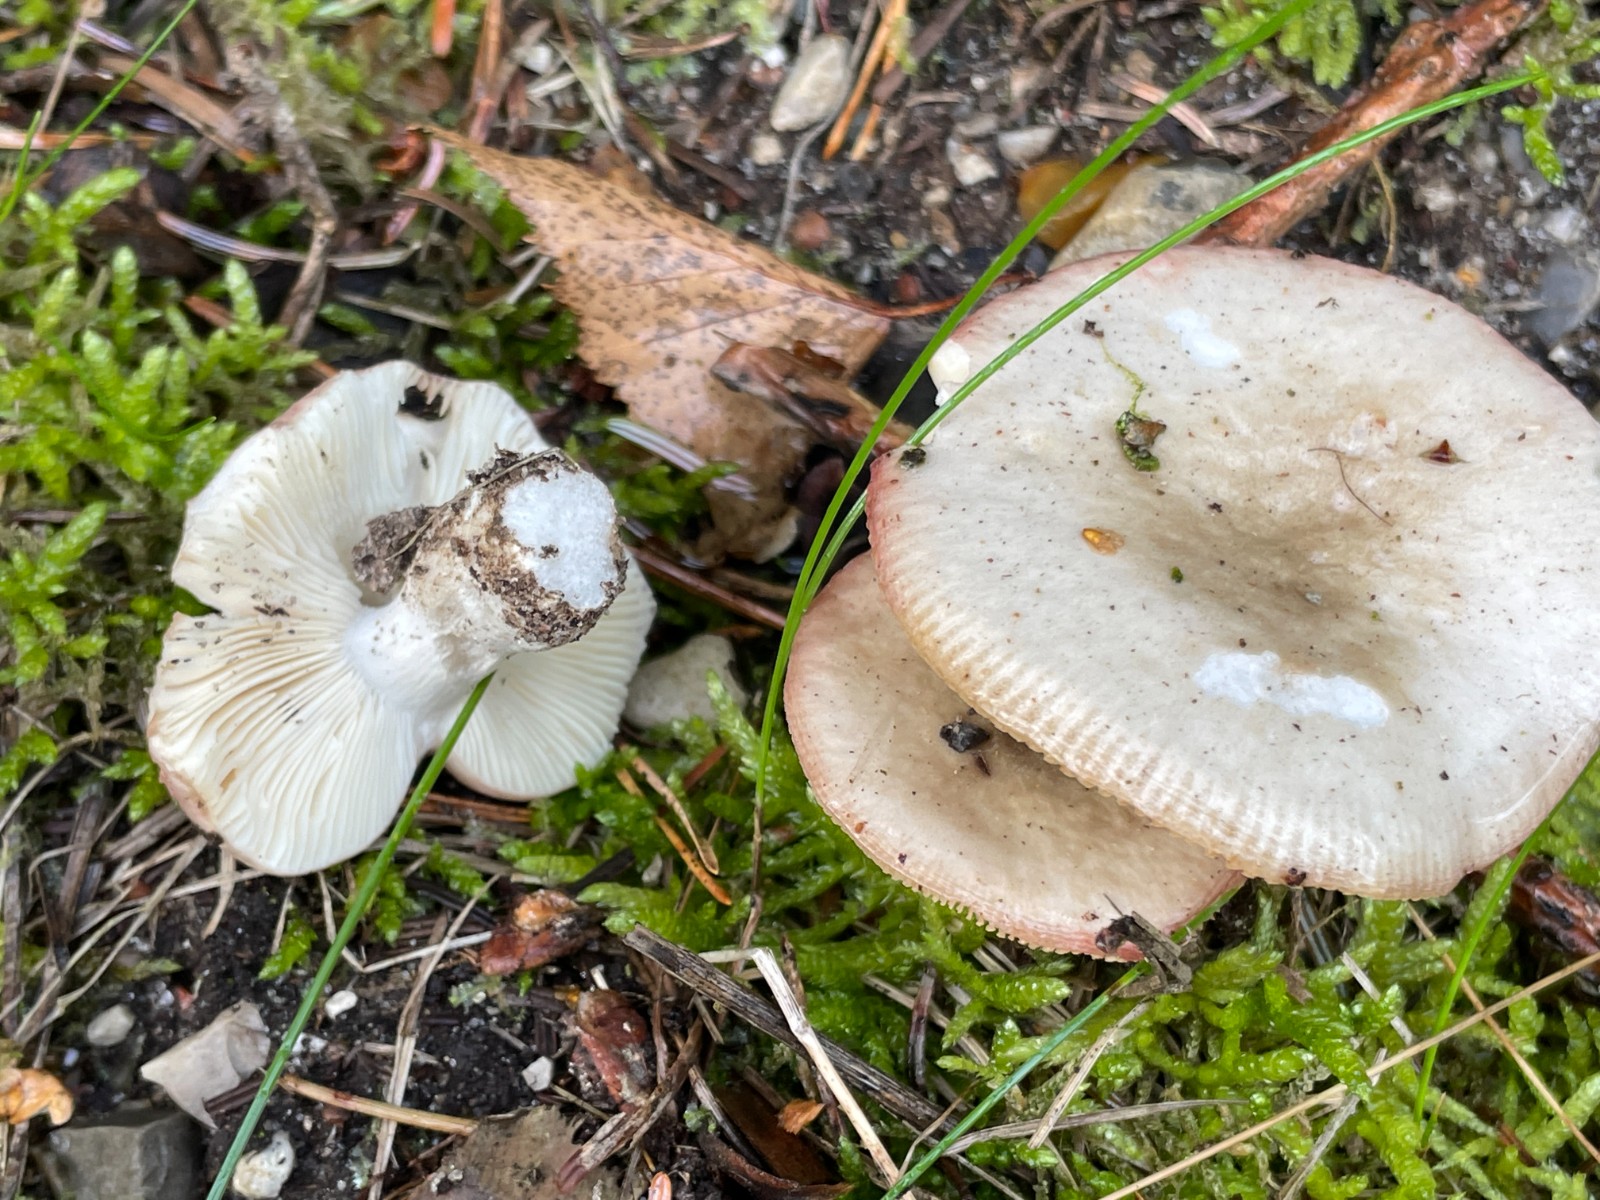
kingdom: Fungi
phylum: Basidiomycota
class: Agaricomycetes
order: Russulales
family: Russulaceae
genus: Russula
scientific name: Russula depallens
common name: falmende skørhat
